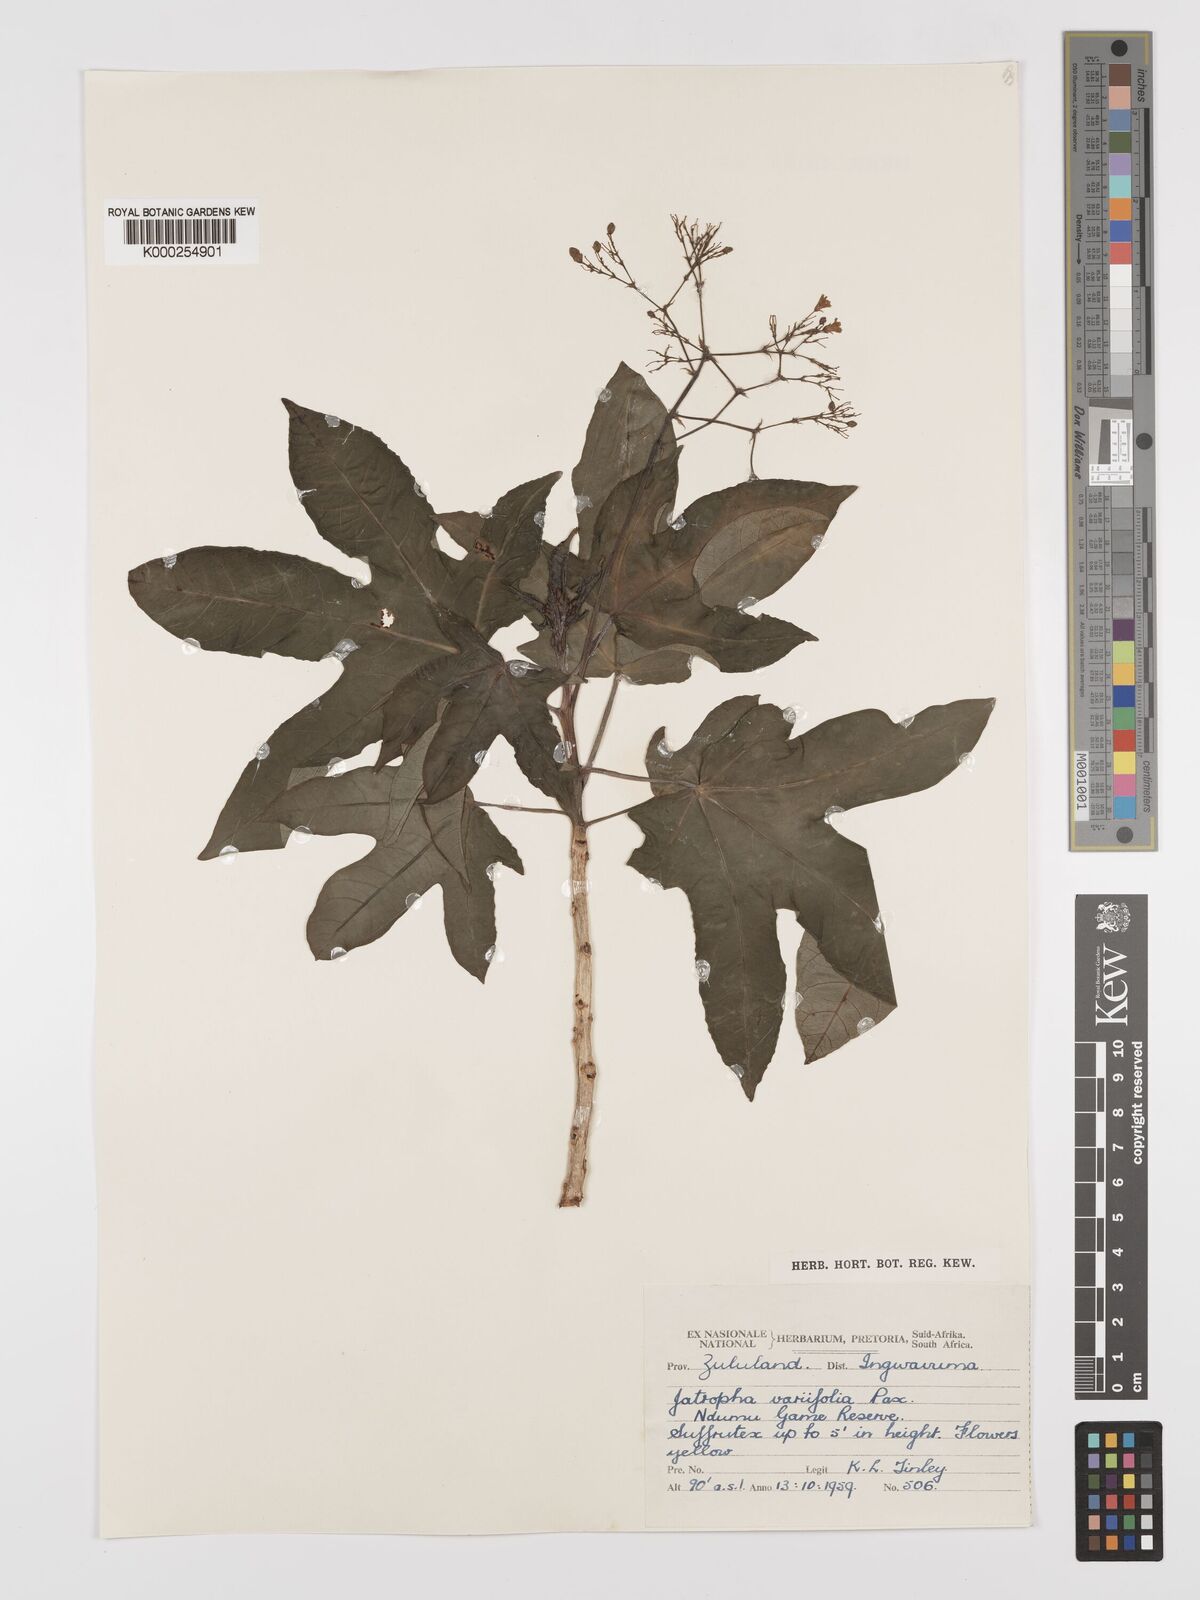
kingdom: Plantae
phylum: Tracheophyta
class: Magnoliopsida
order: Malpighiales
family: Euphorbiaceae
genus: Jatropha
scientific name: Jatropha variifolia
